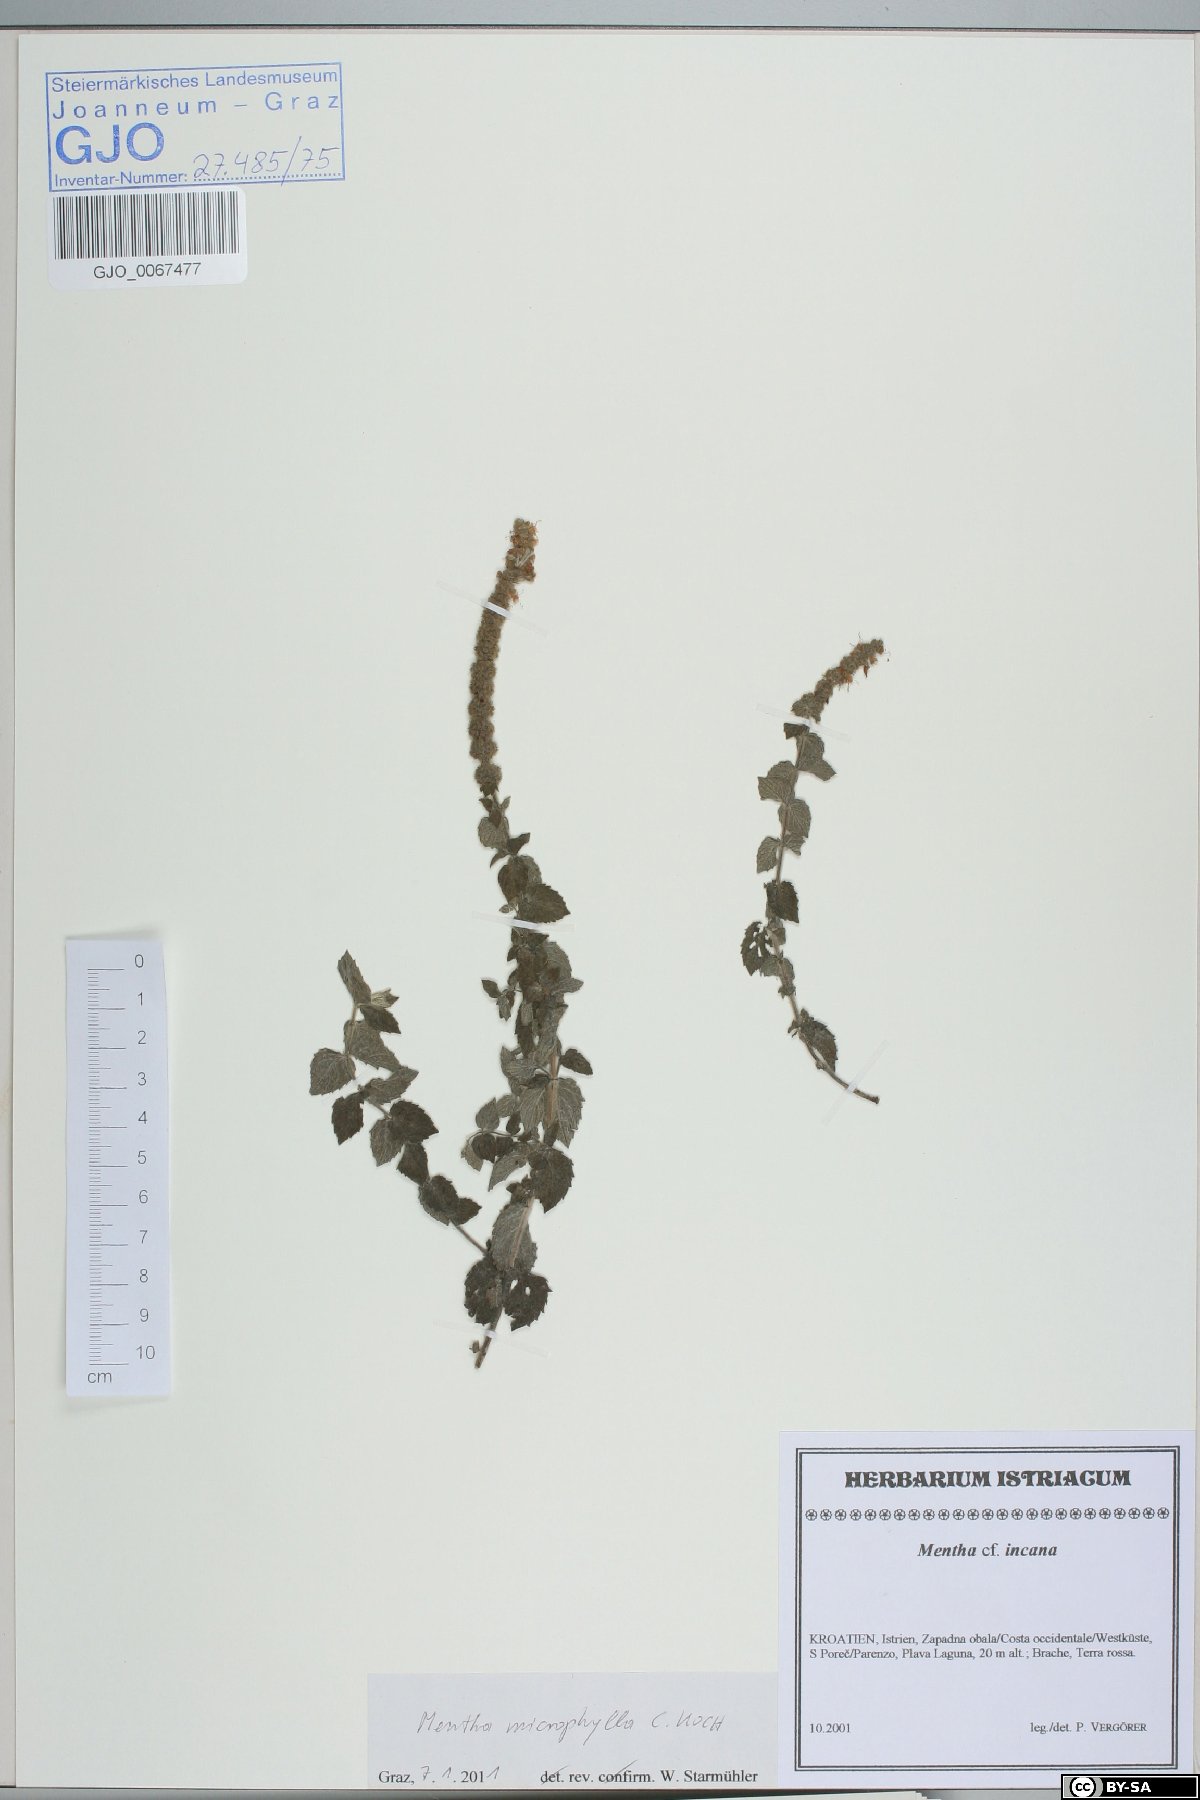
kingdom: Plantae
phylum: Tracheophyta
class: Magnoliopsida
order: Lamiales
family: Lamiaceae
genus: Mentha
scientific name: Mentha spicata
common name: Spearmint
